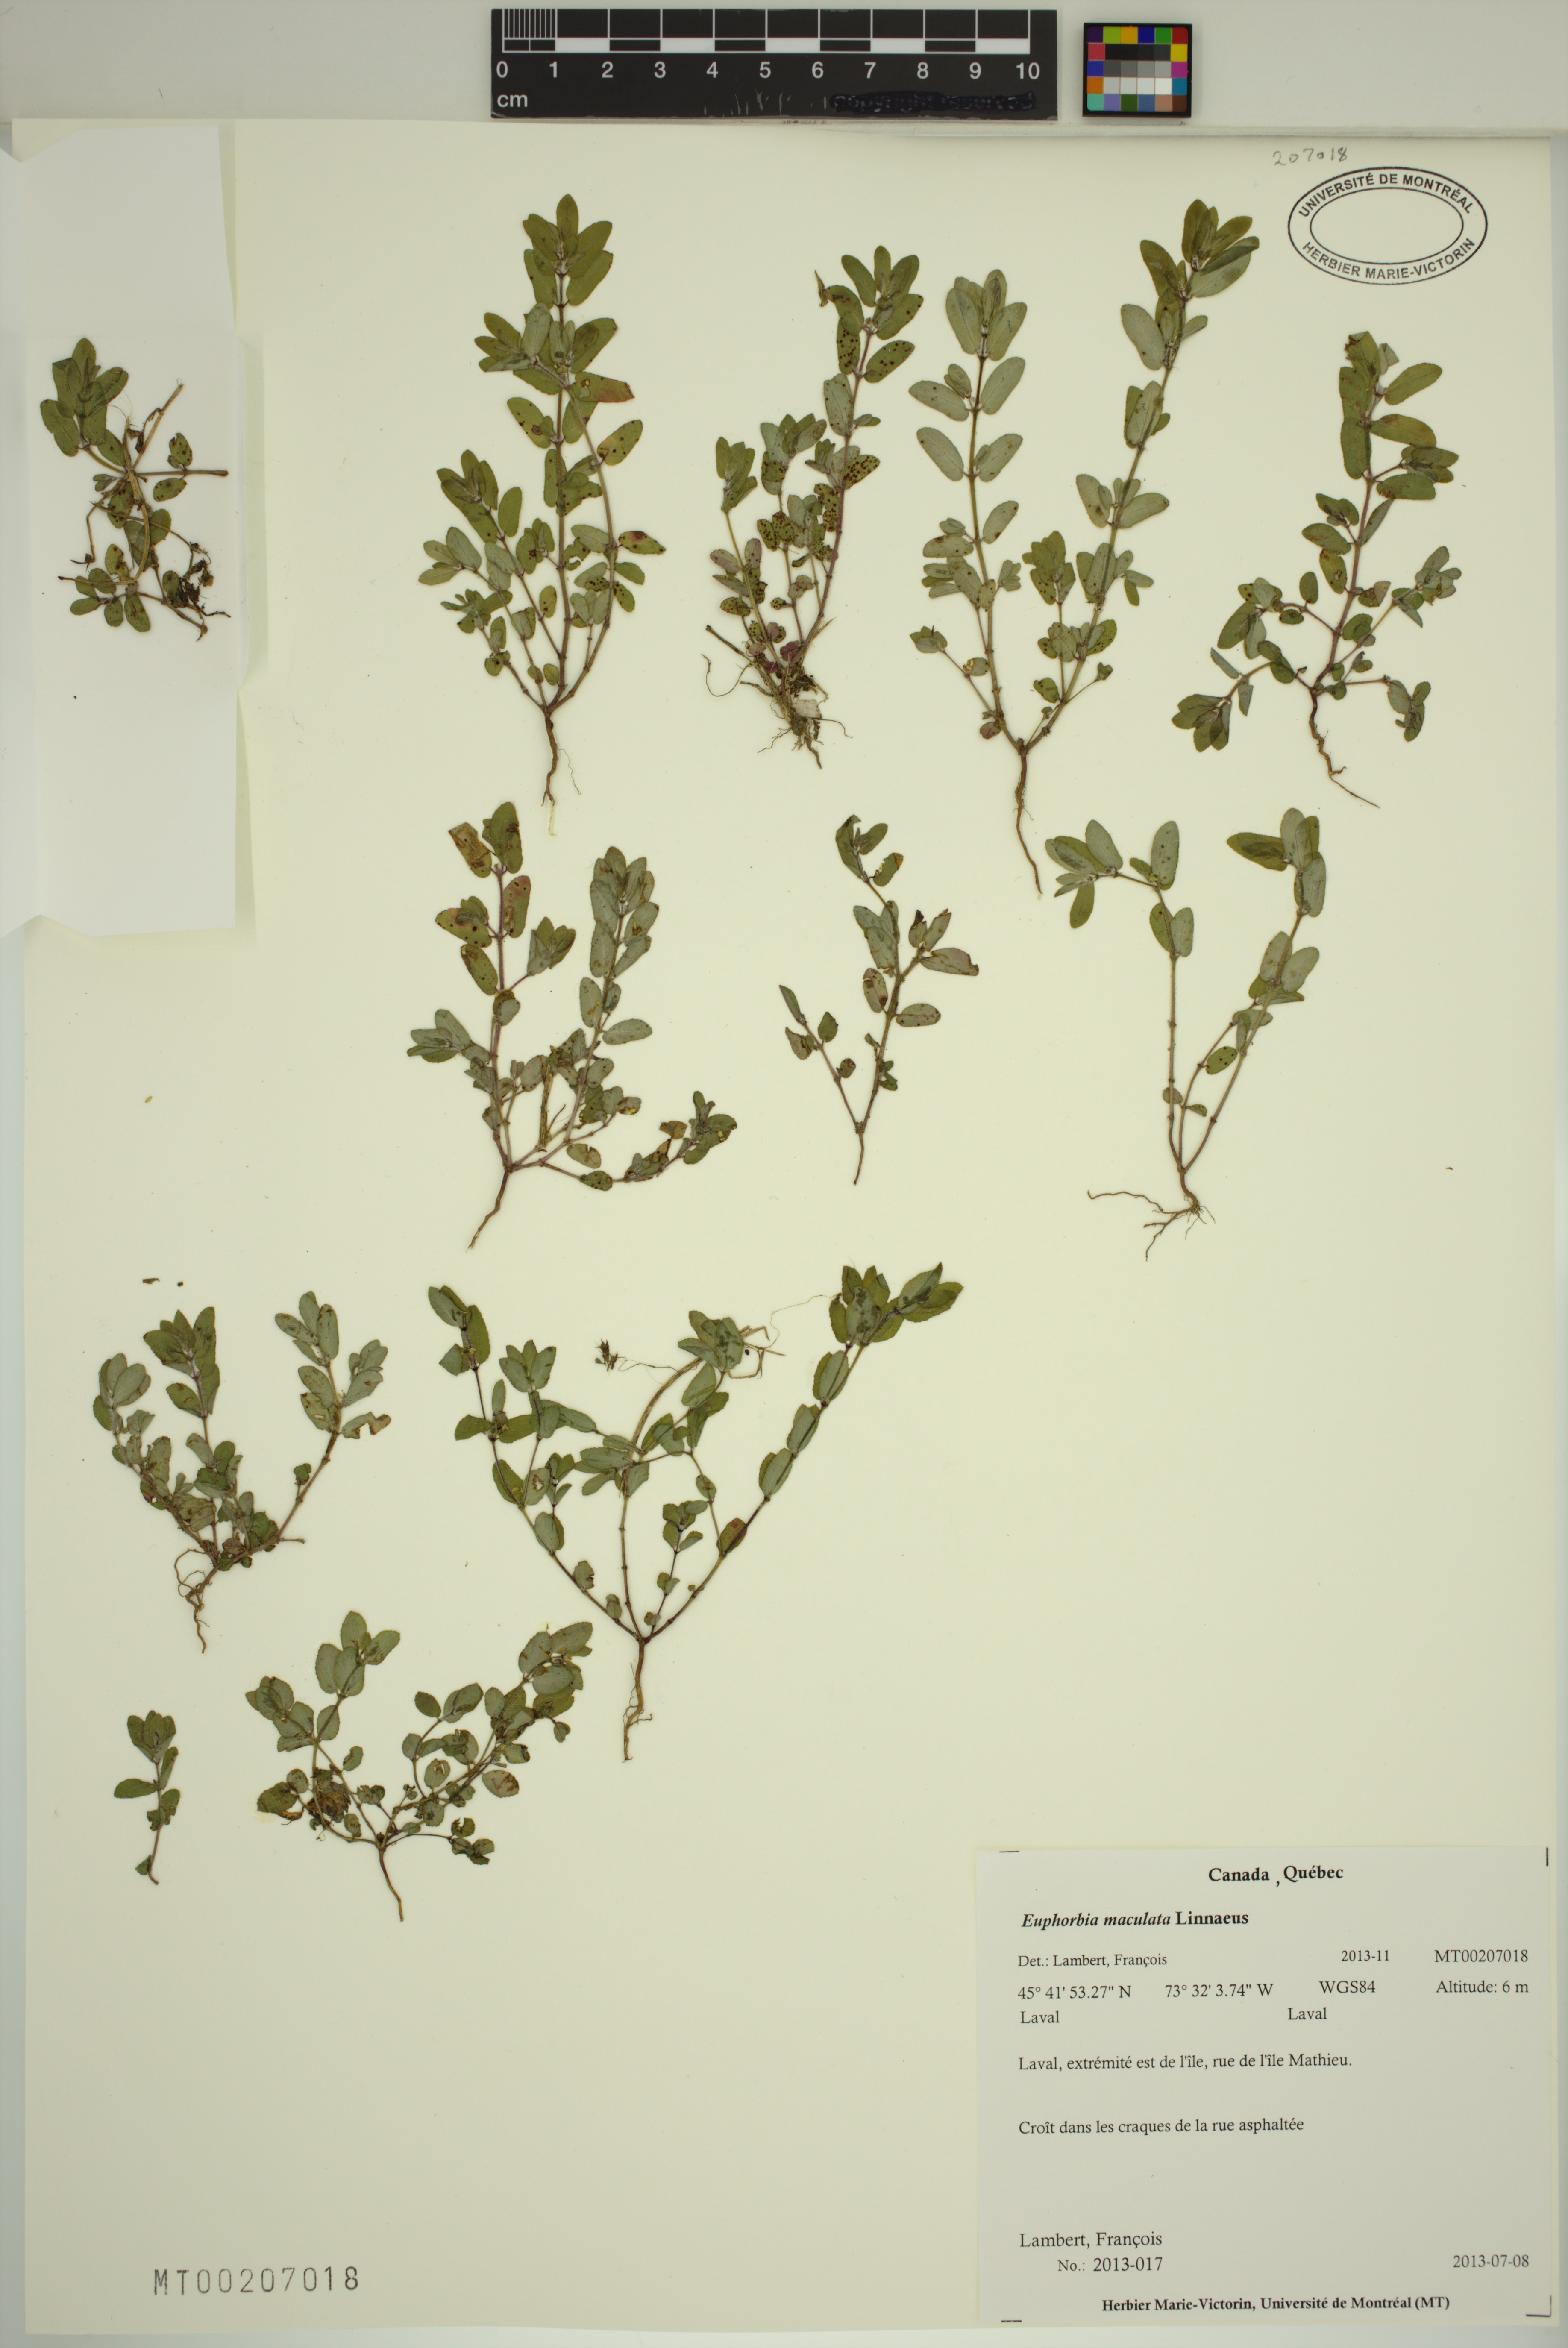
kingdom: Plantae
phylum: Tracheophyta
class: Magnoliopsida
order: Malpighiales
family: Euphorbiaceae
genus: Euphorbia
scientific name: Euphorbia maculata
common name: Spotted spurge
